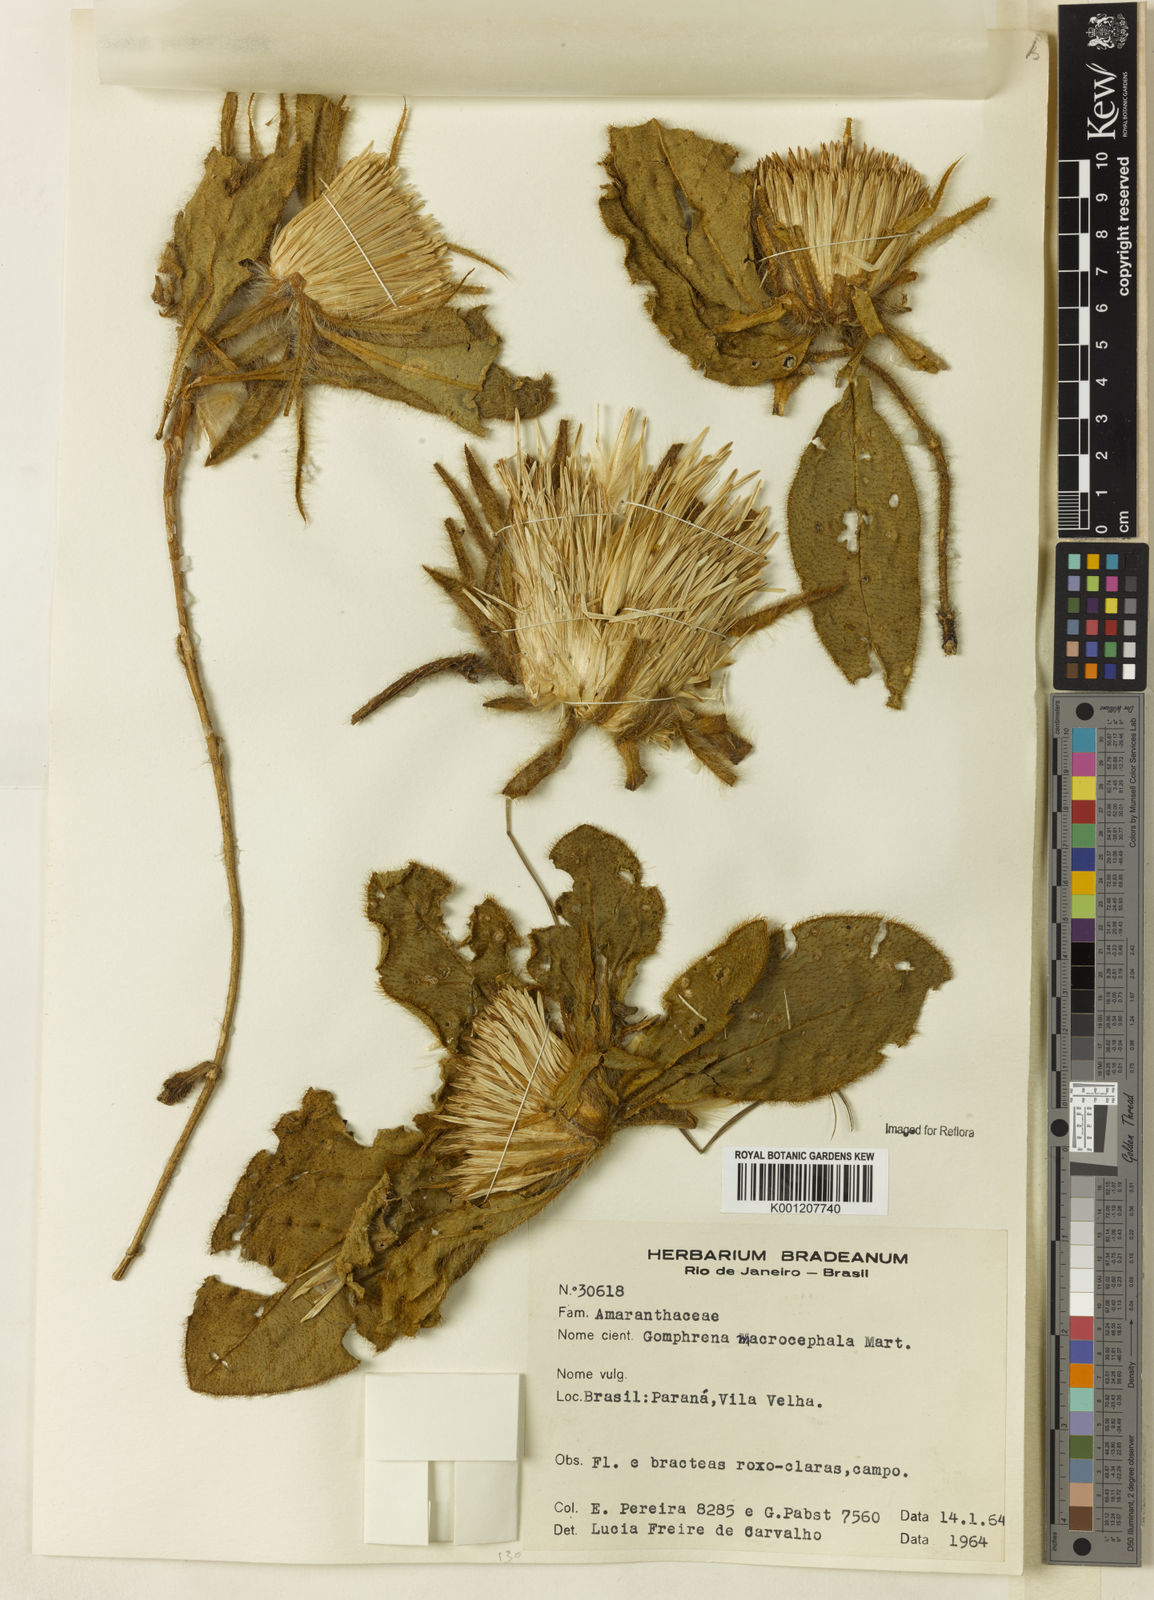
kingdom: Plantae
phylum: Tracheophyta
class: Magnoliopsida
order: Caryophyllales
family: Amaranthaceae
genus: Gomphrena
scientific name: Gomphrena macrocephala
